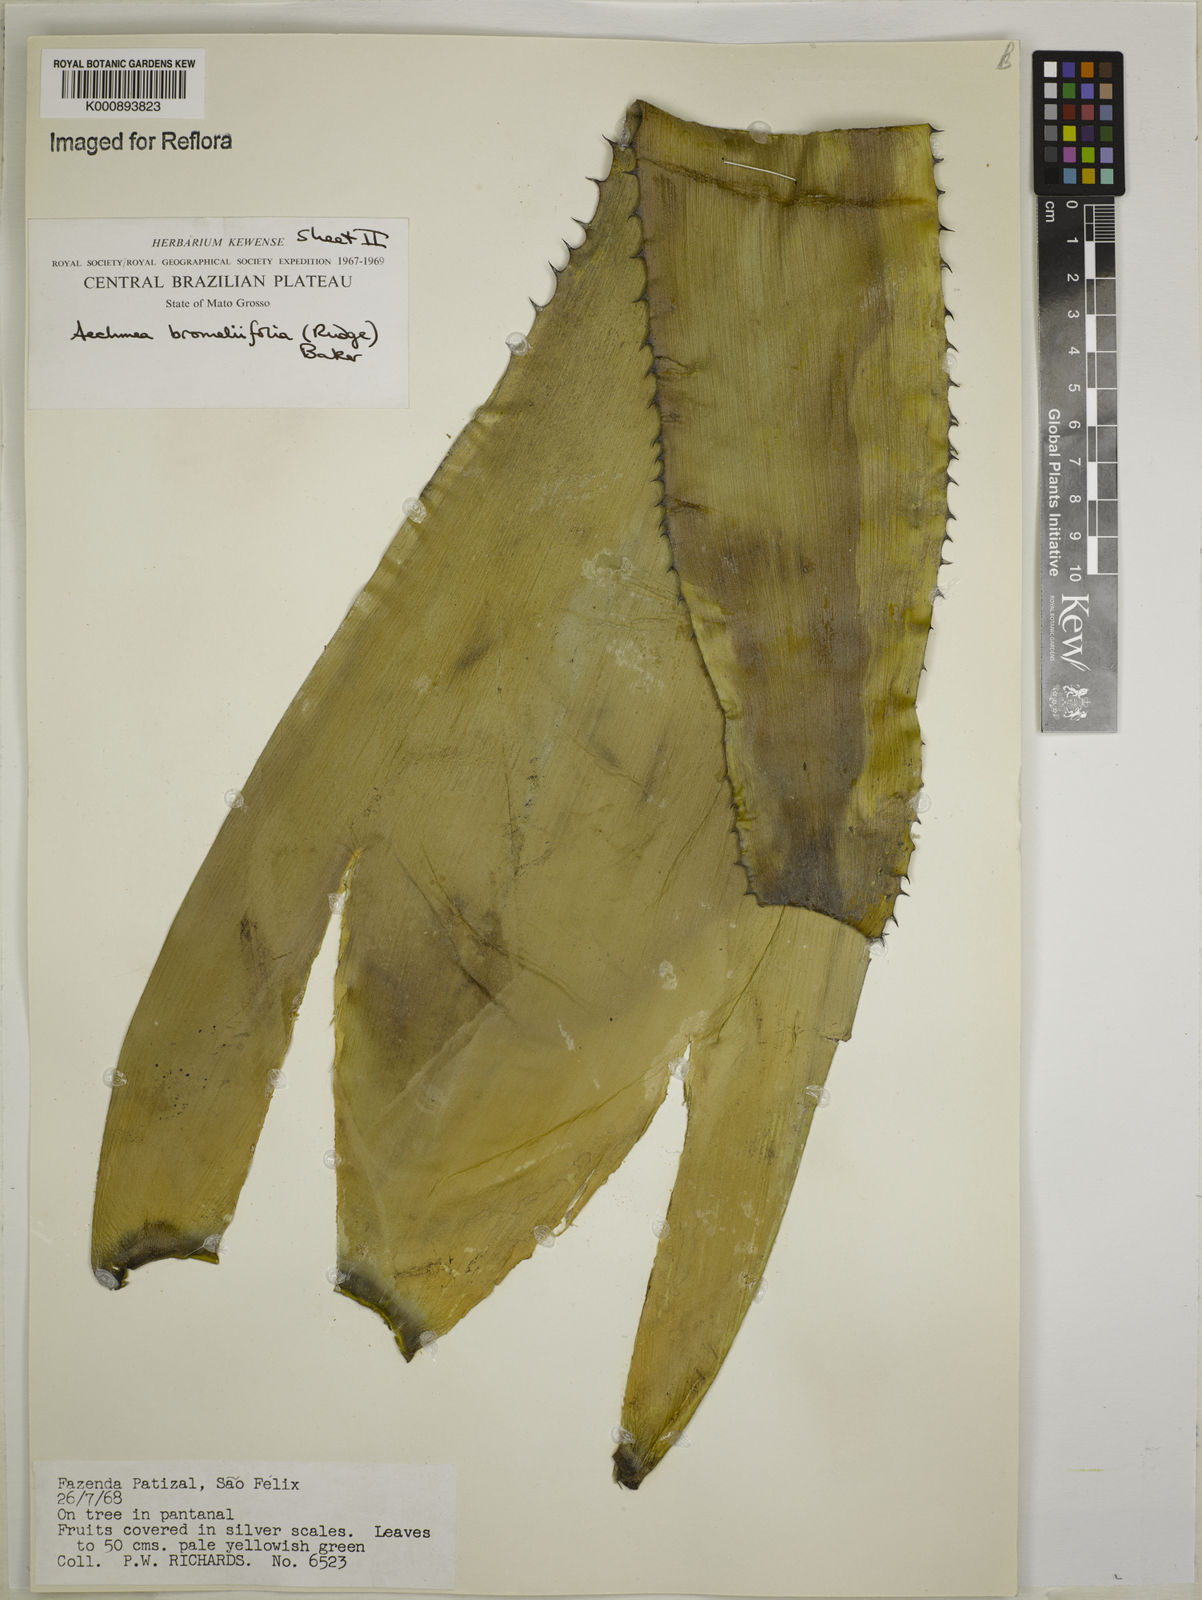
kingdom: Plantae
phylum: Tracheophyta
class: Liliopsida
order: Poales
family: Bromeliaceae
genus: Aechmea
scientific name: Aechmea
